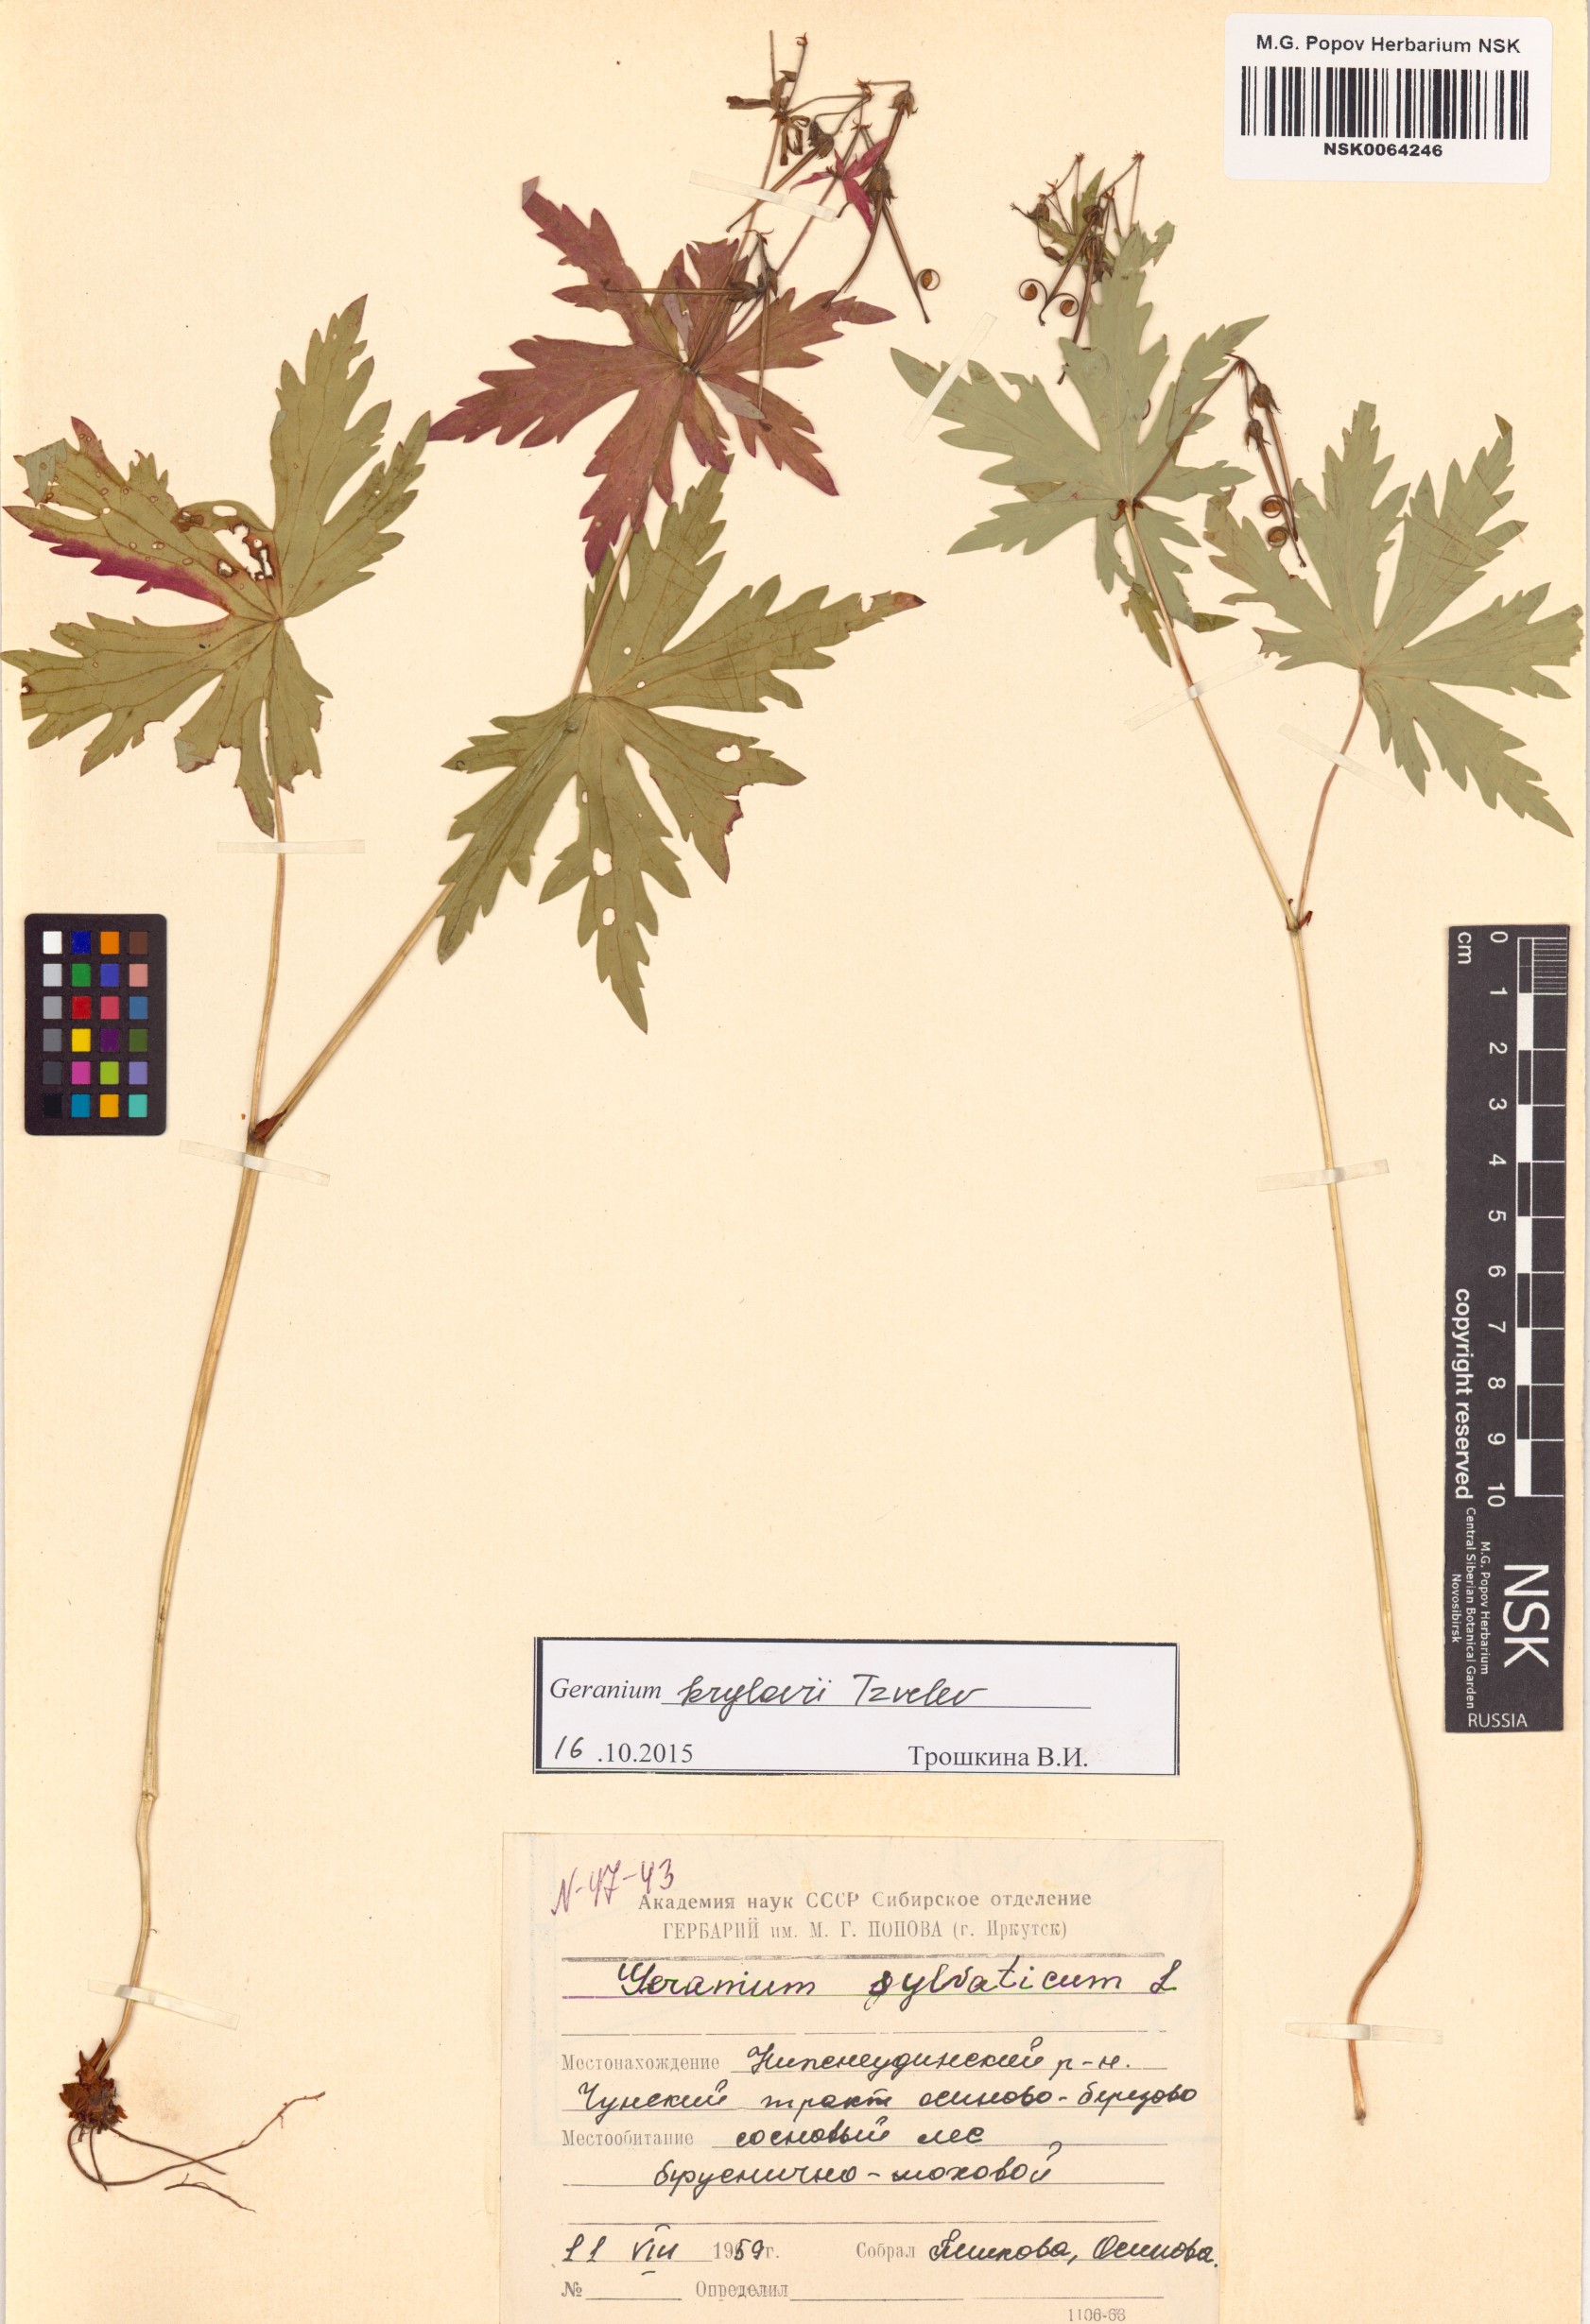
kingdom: Plantae
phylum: Tracheophyta
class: Magnoliopsida
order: Geraniales
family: Geraniaceae
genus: Geranium
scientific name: Geranium sylvaticum
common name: Wood crane's-bill
